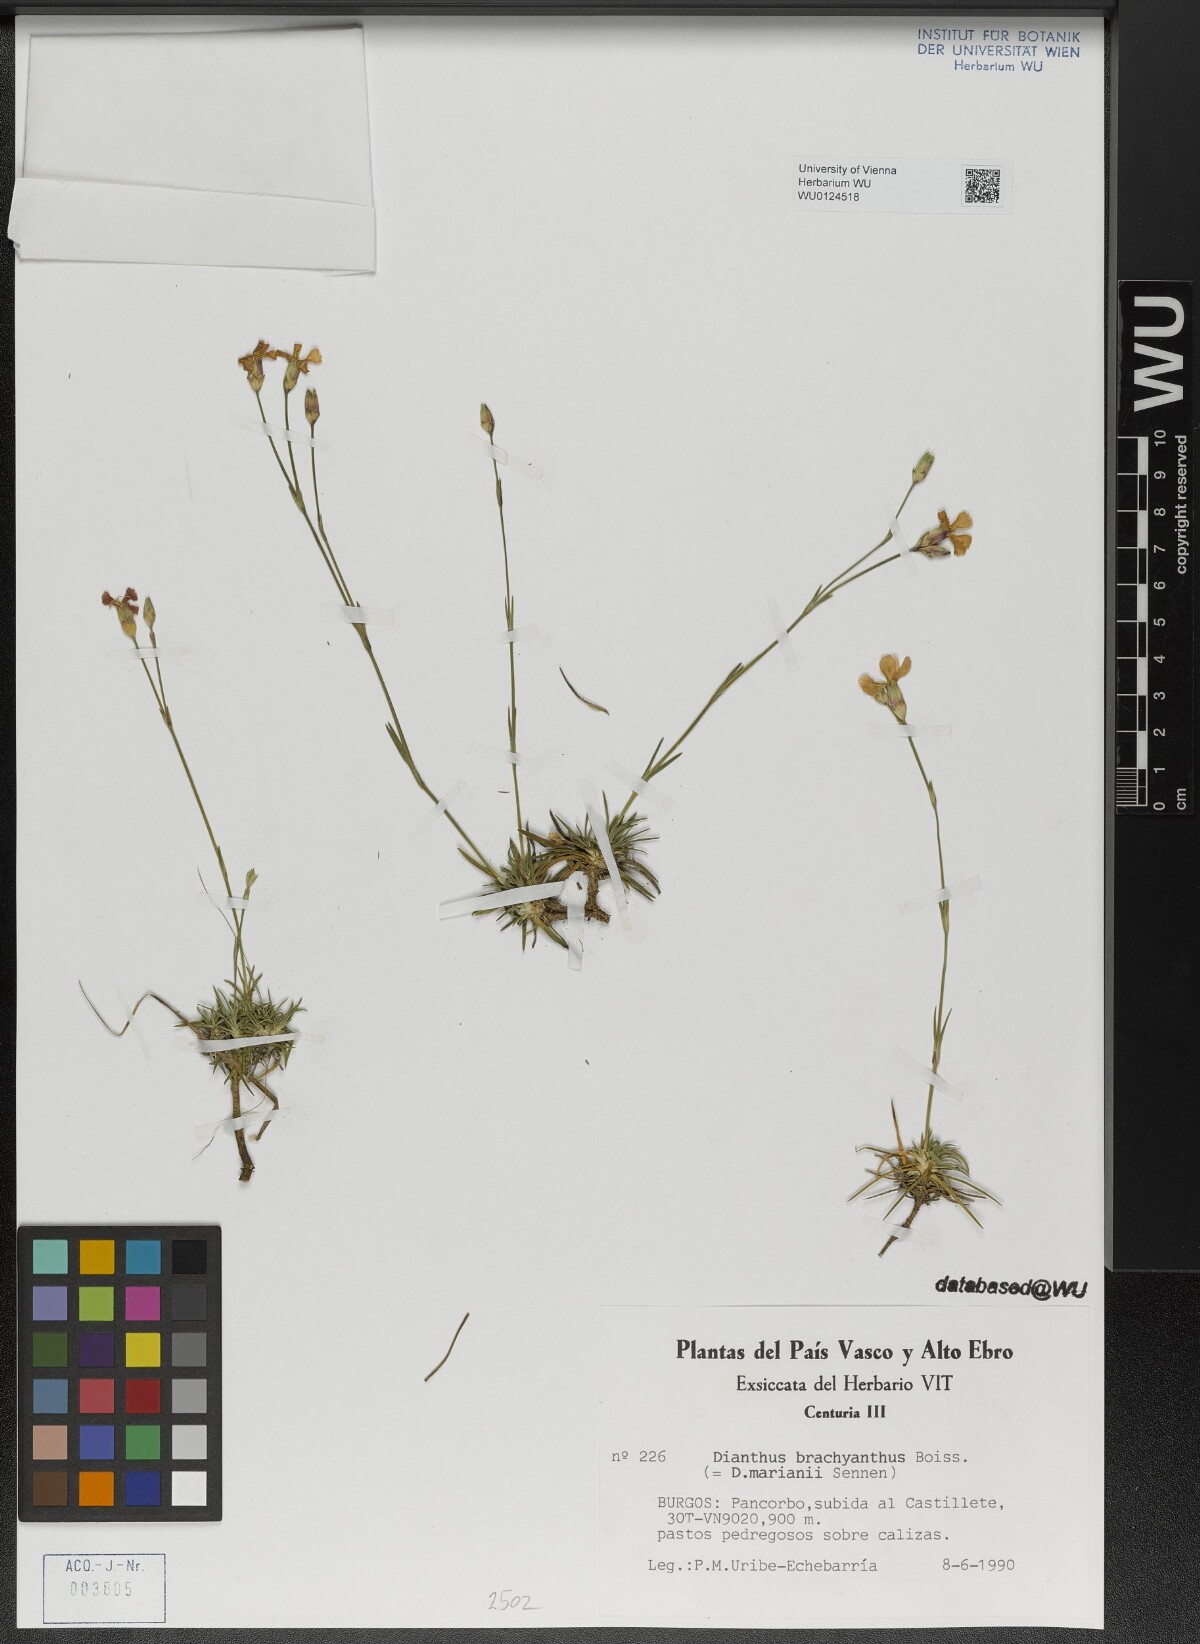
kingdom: Plantae
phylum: Tracheophyta
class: Magnoliopsida
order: Caryophyllales
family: Caryophyllaceae
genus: Dianthus
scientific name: Dianthus pungens
